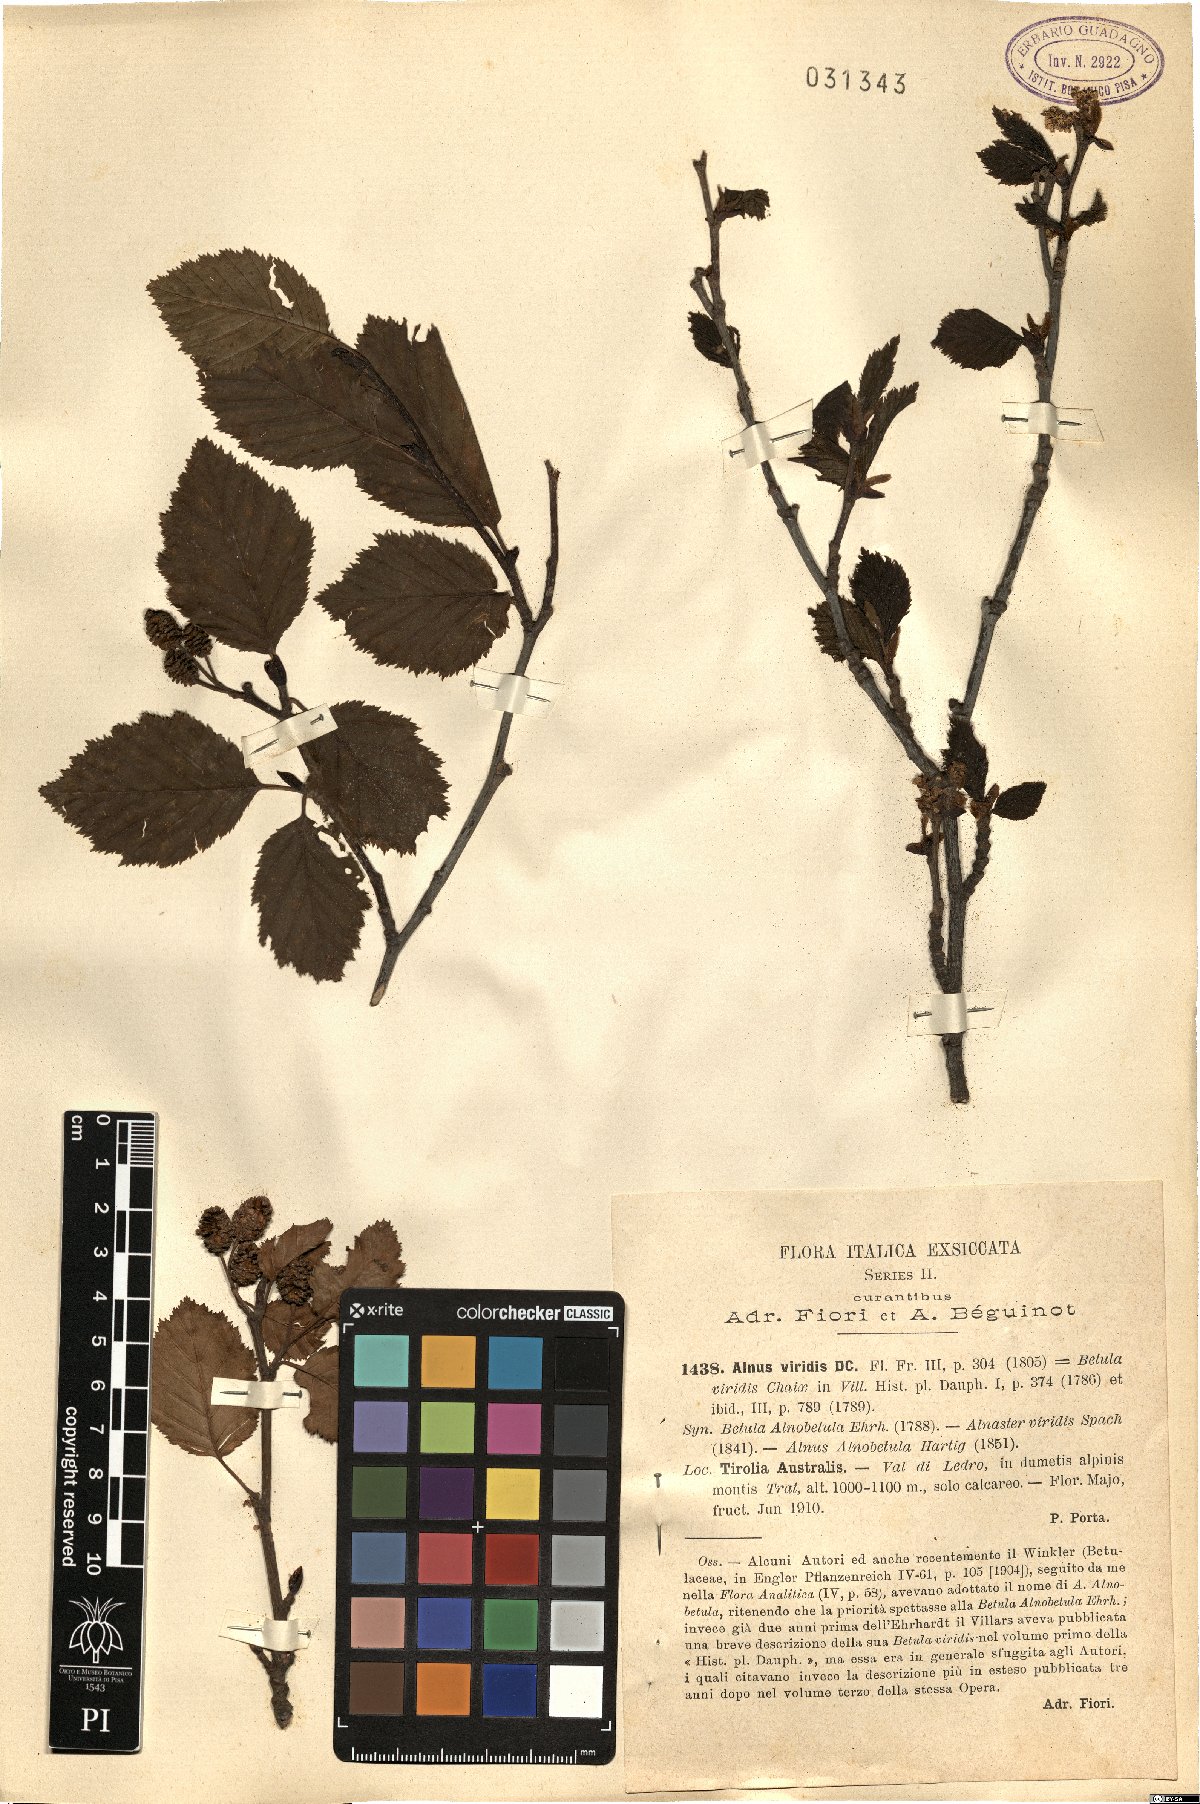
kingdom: Plantae
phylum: Tracheophyta
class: Magnoliopsida
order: Fagales
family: Betulaceae
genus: Alnus
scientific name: Alnus alnobetula
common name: Green alder
